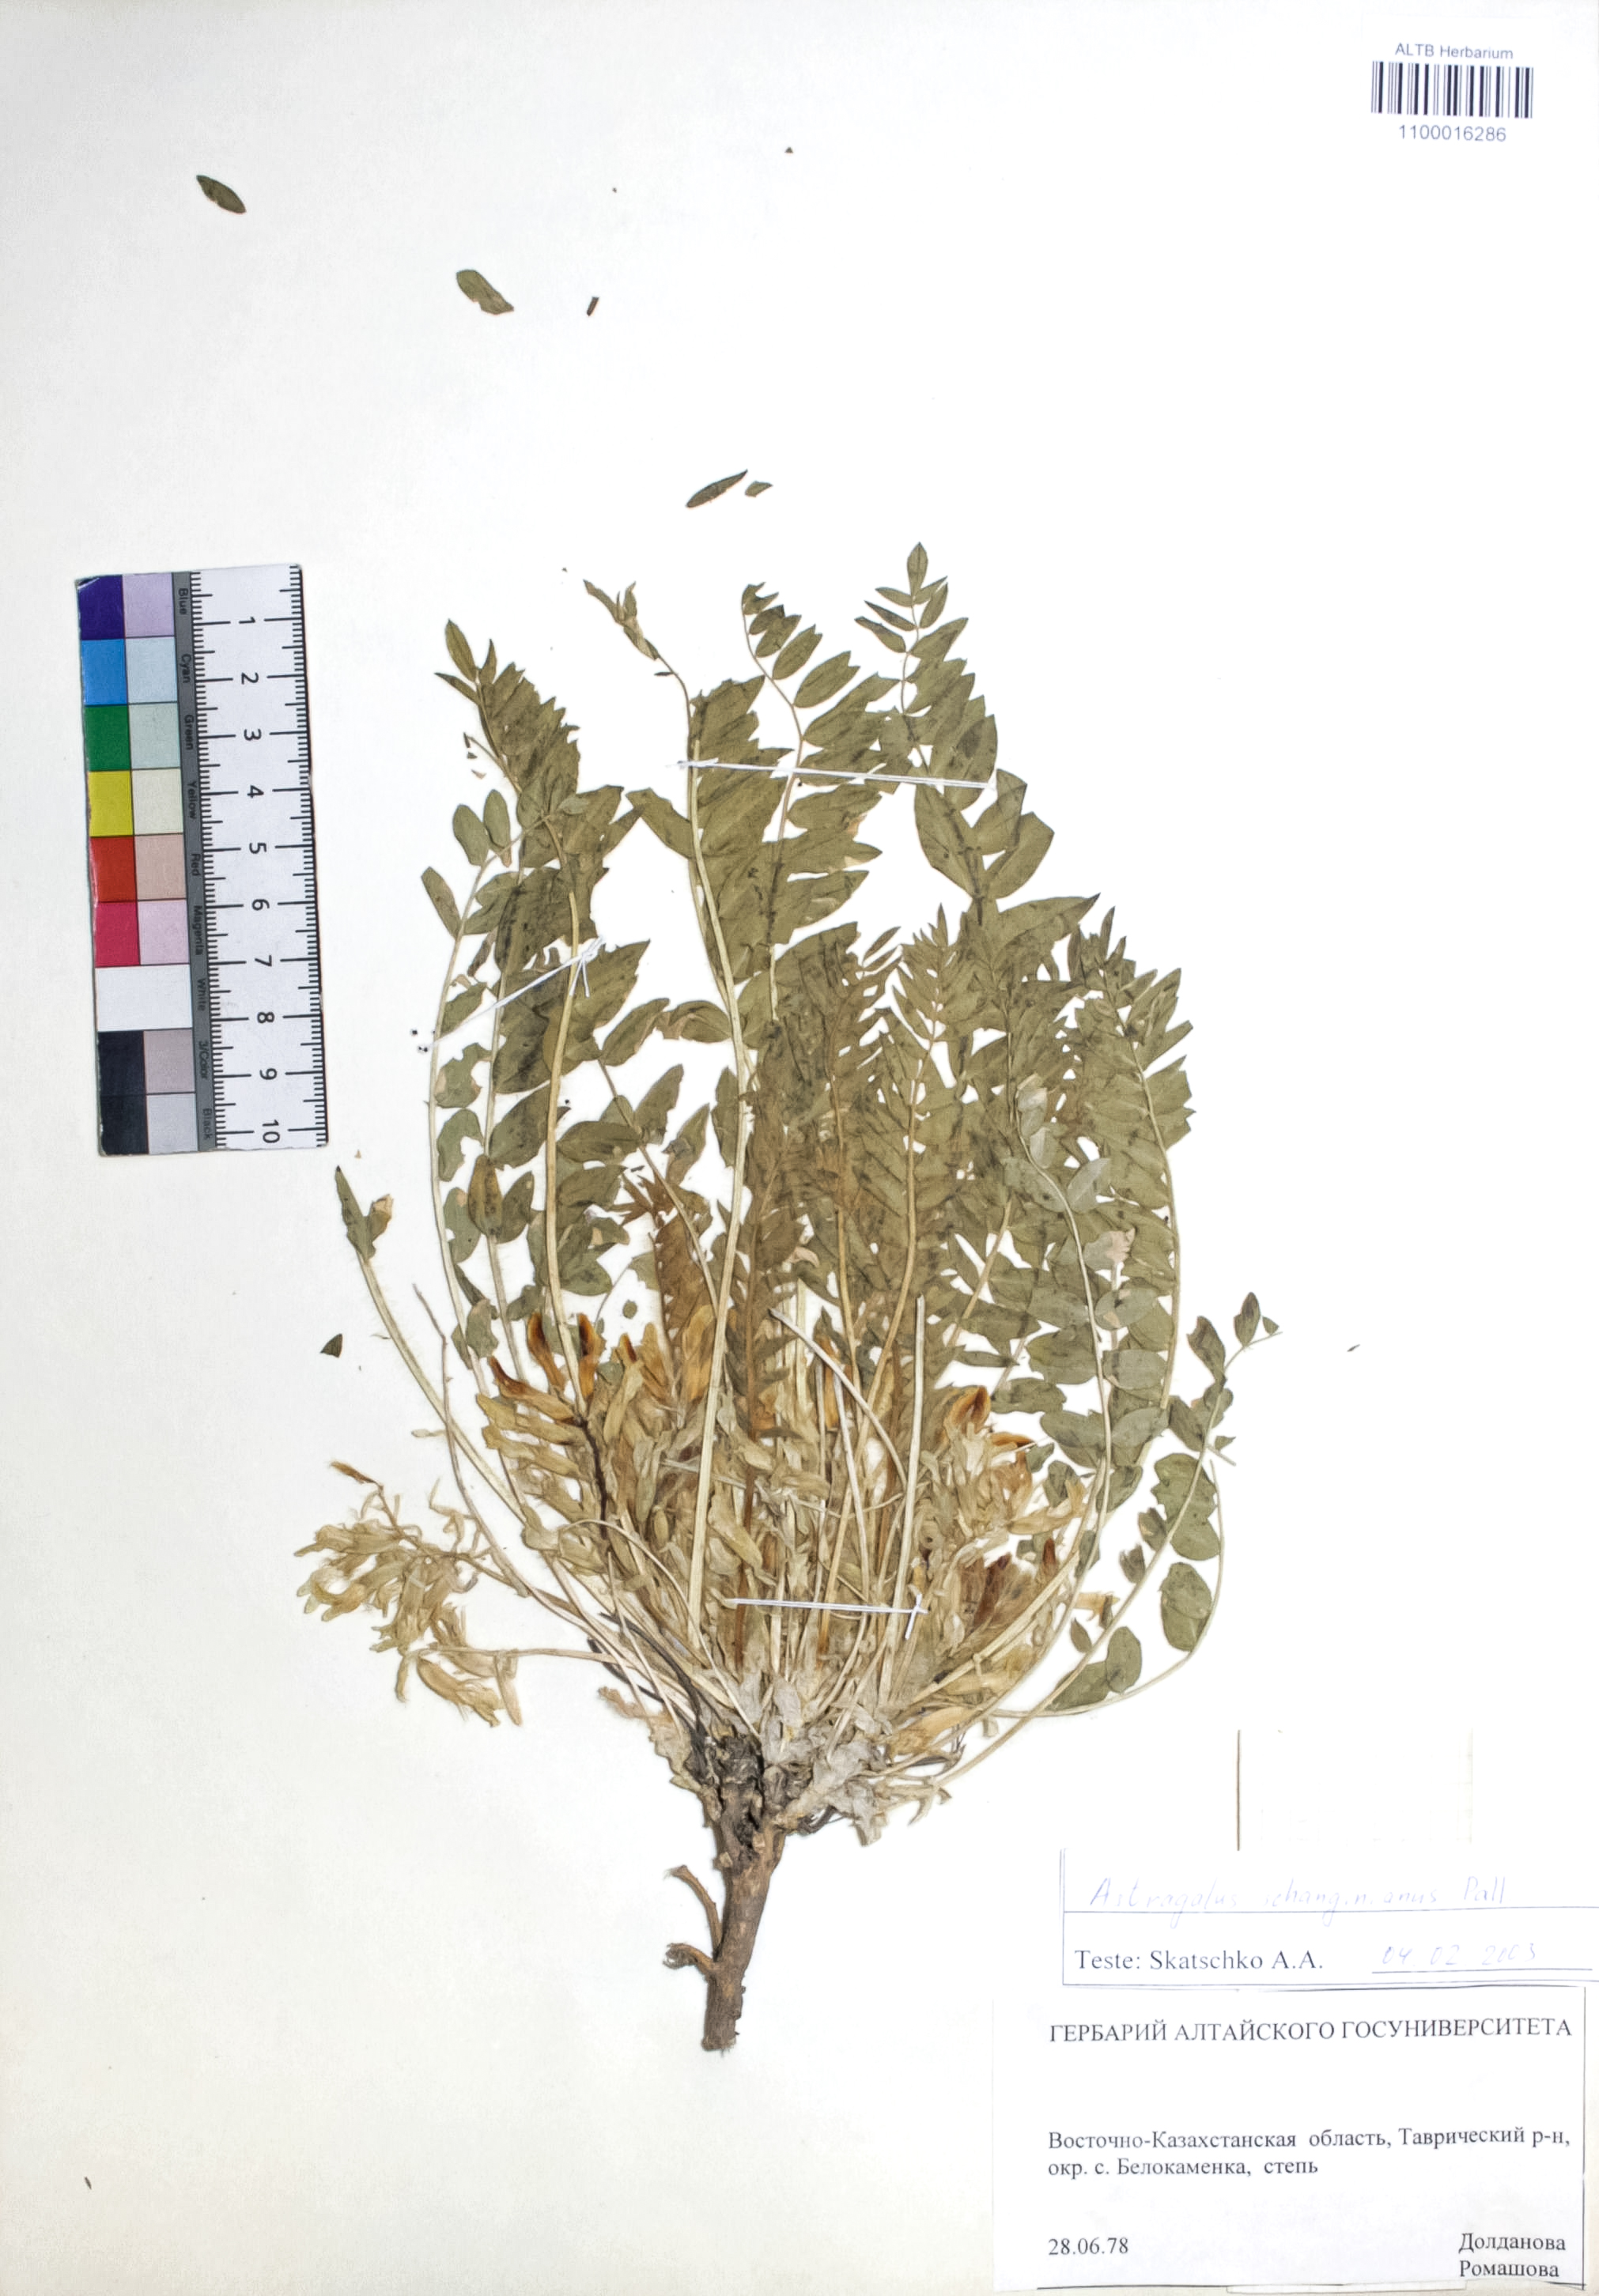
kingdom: Plantae
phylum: Tracheophyta
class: Magnoliopsida
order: Fabales
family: Fabaceae
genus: Astragalus
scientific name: Astragalus schanginianus
